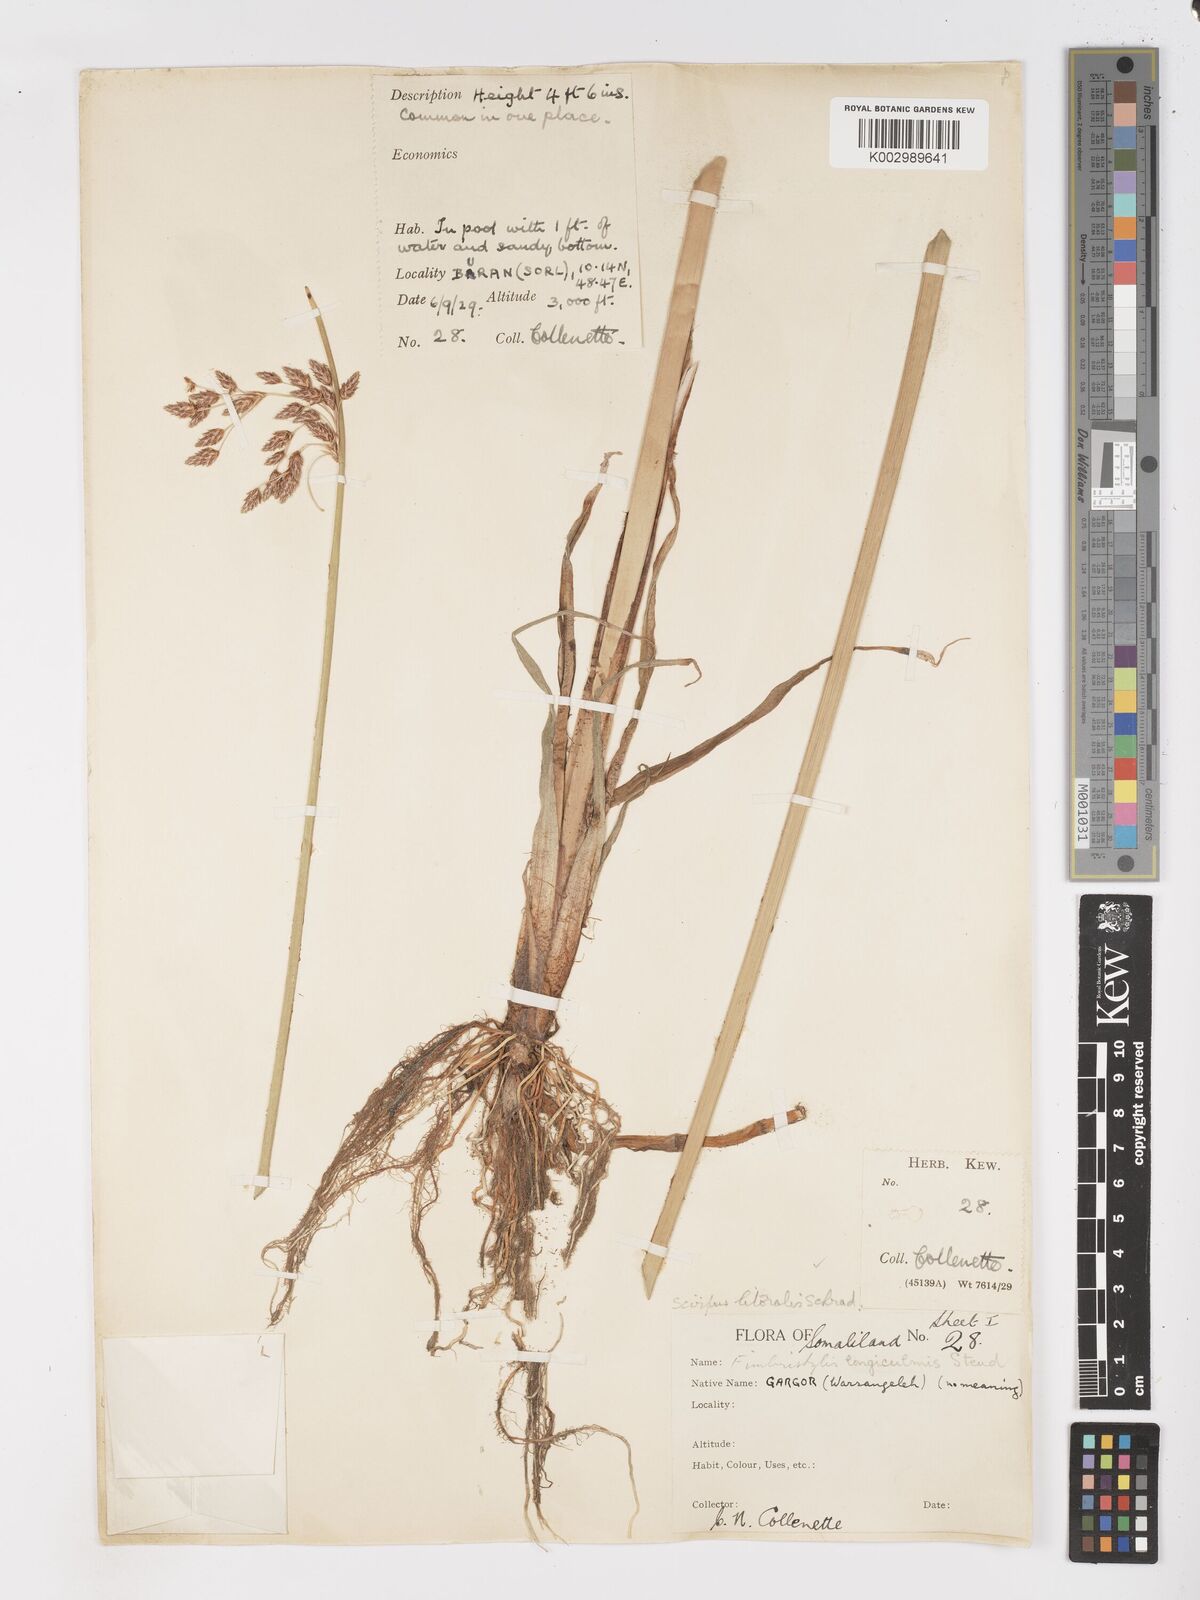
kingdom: Plantae
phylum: Tracheophyta
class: Liliopsida
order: Poales
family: Cyperaceae
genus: Schoenoplectus
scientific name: Schoenoplectus litoralis
